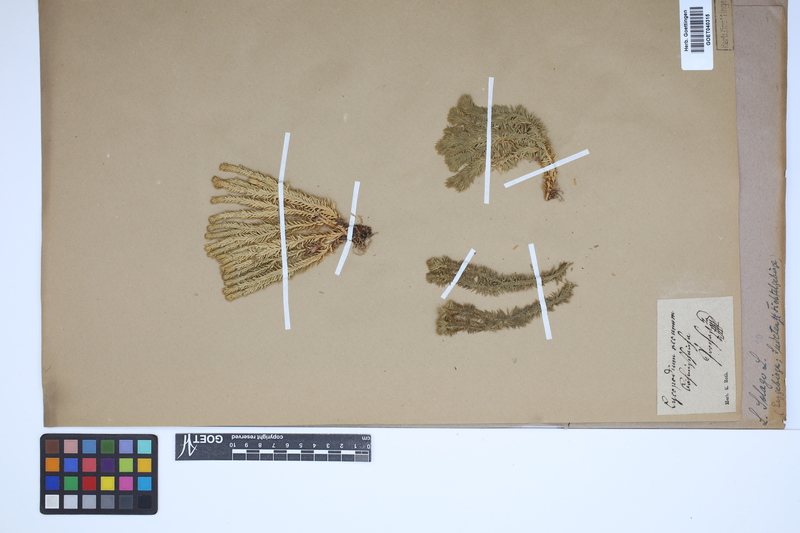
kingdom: Plantae
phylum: Tracheophyta
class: Lycopodiopsida
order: Lycopodiales
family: Lycopodiaceae
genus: Huperzia
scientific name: Huperzia selago
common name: Northern firmoss
